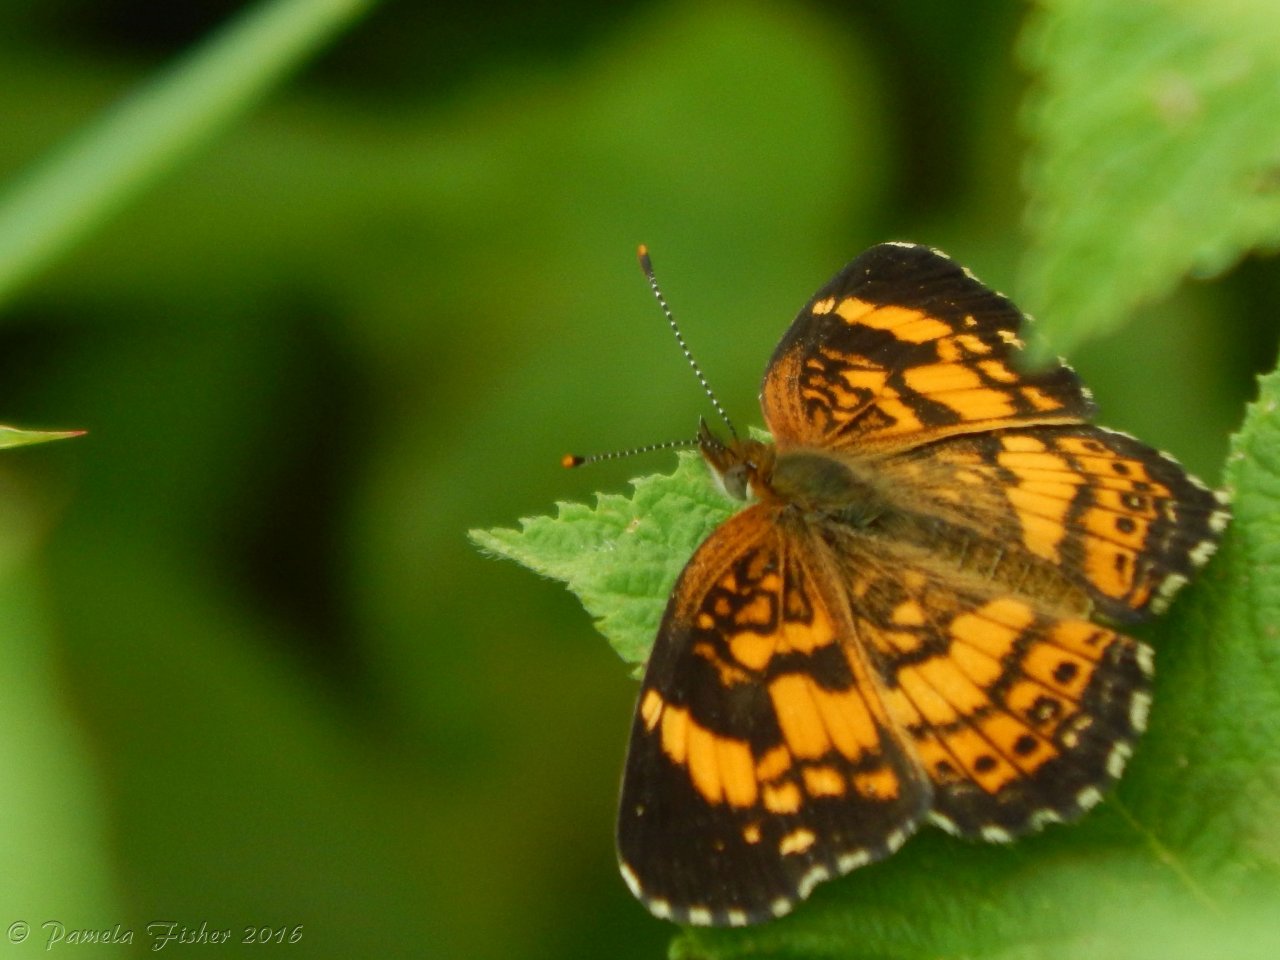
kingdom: Animalia
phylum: Arthropoda
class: Insecta
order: Lepidoptera
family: Nymphalidae
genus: Chlosyne
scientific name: Chlosyne nycteis
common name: Silvery Checkerspot
